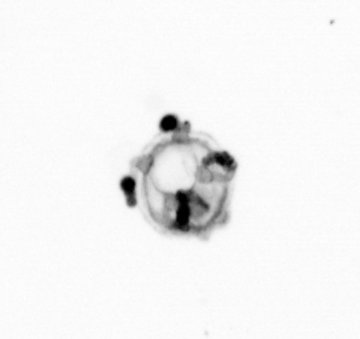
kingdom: Animalia
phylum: Cnidaria
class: Hydrozoa
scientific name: Hydrozoa
